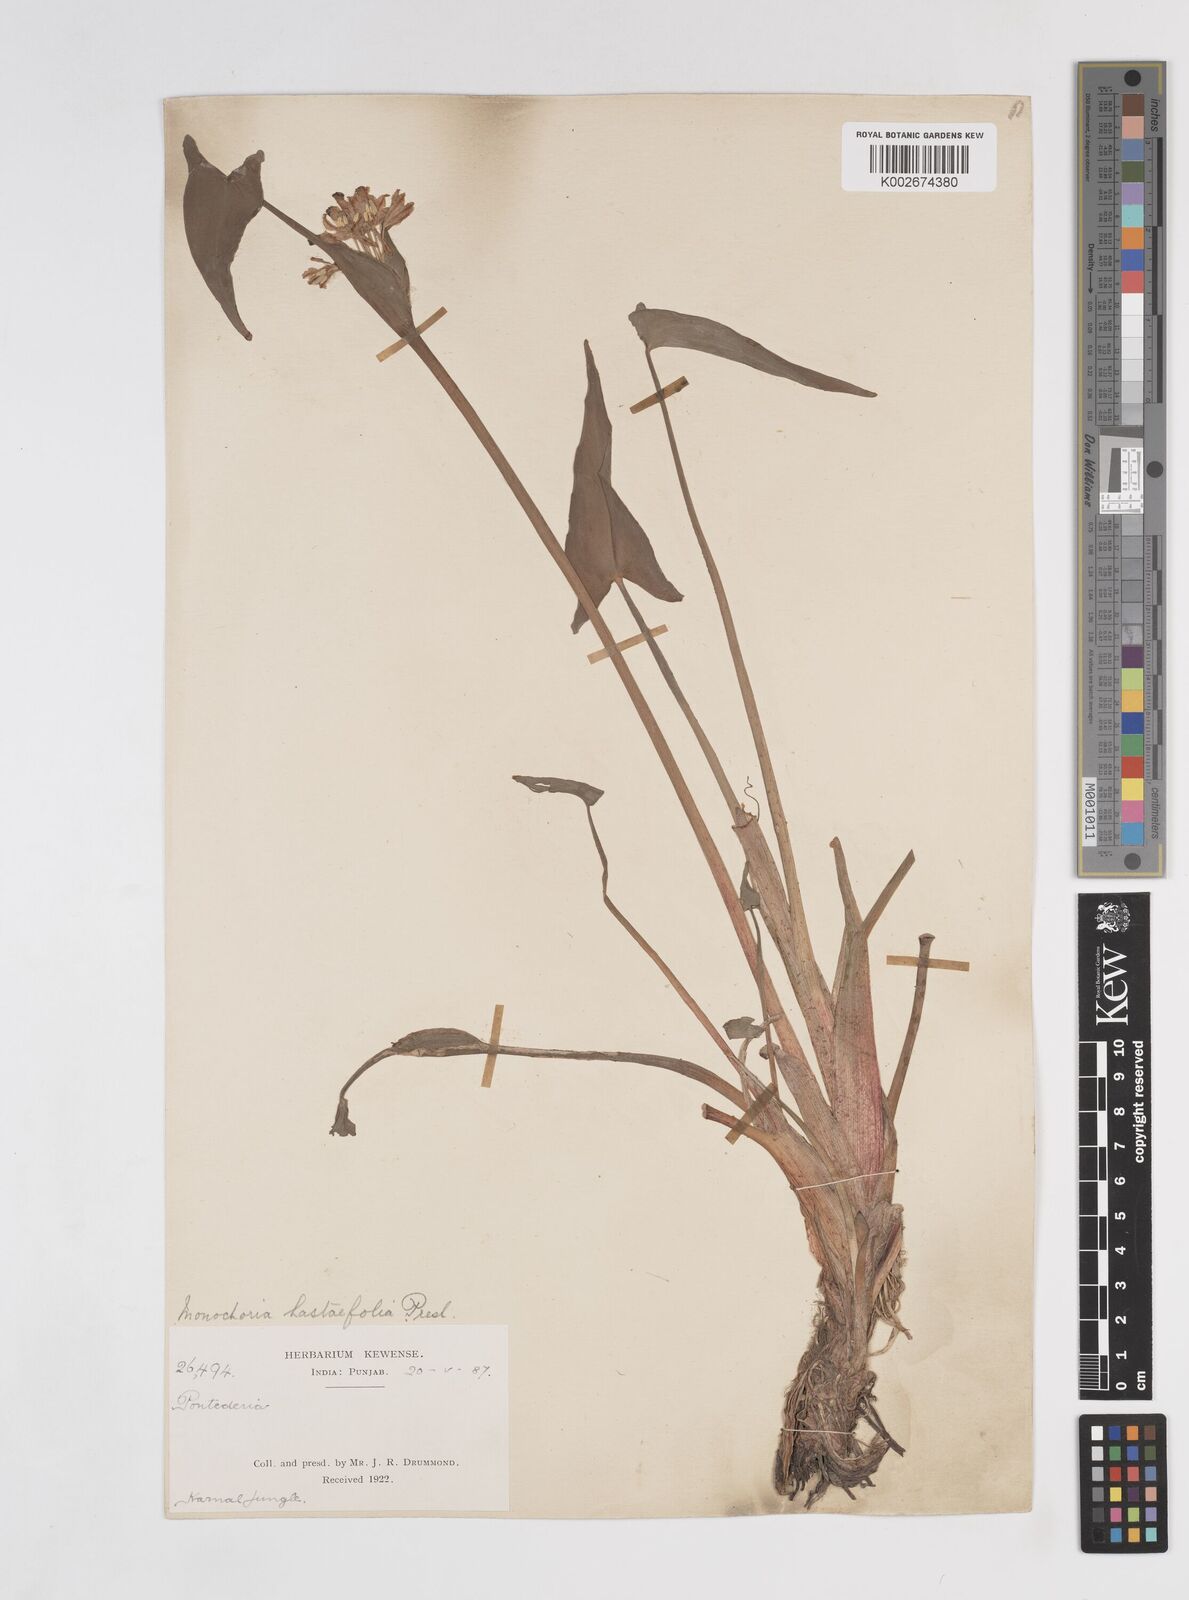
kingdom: Plantae
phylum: Tracheophyta
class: Liliopsida
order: Commelinales
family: Pontederiaceae
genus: Pontederia
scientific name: Pontederia hastata
